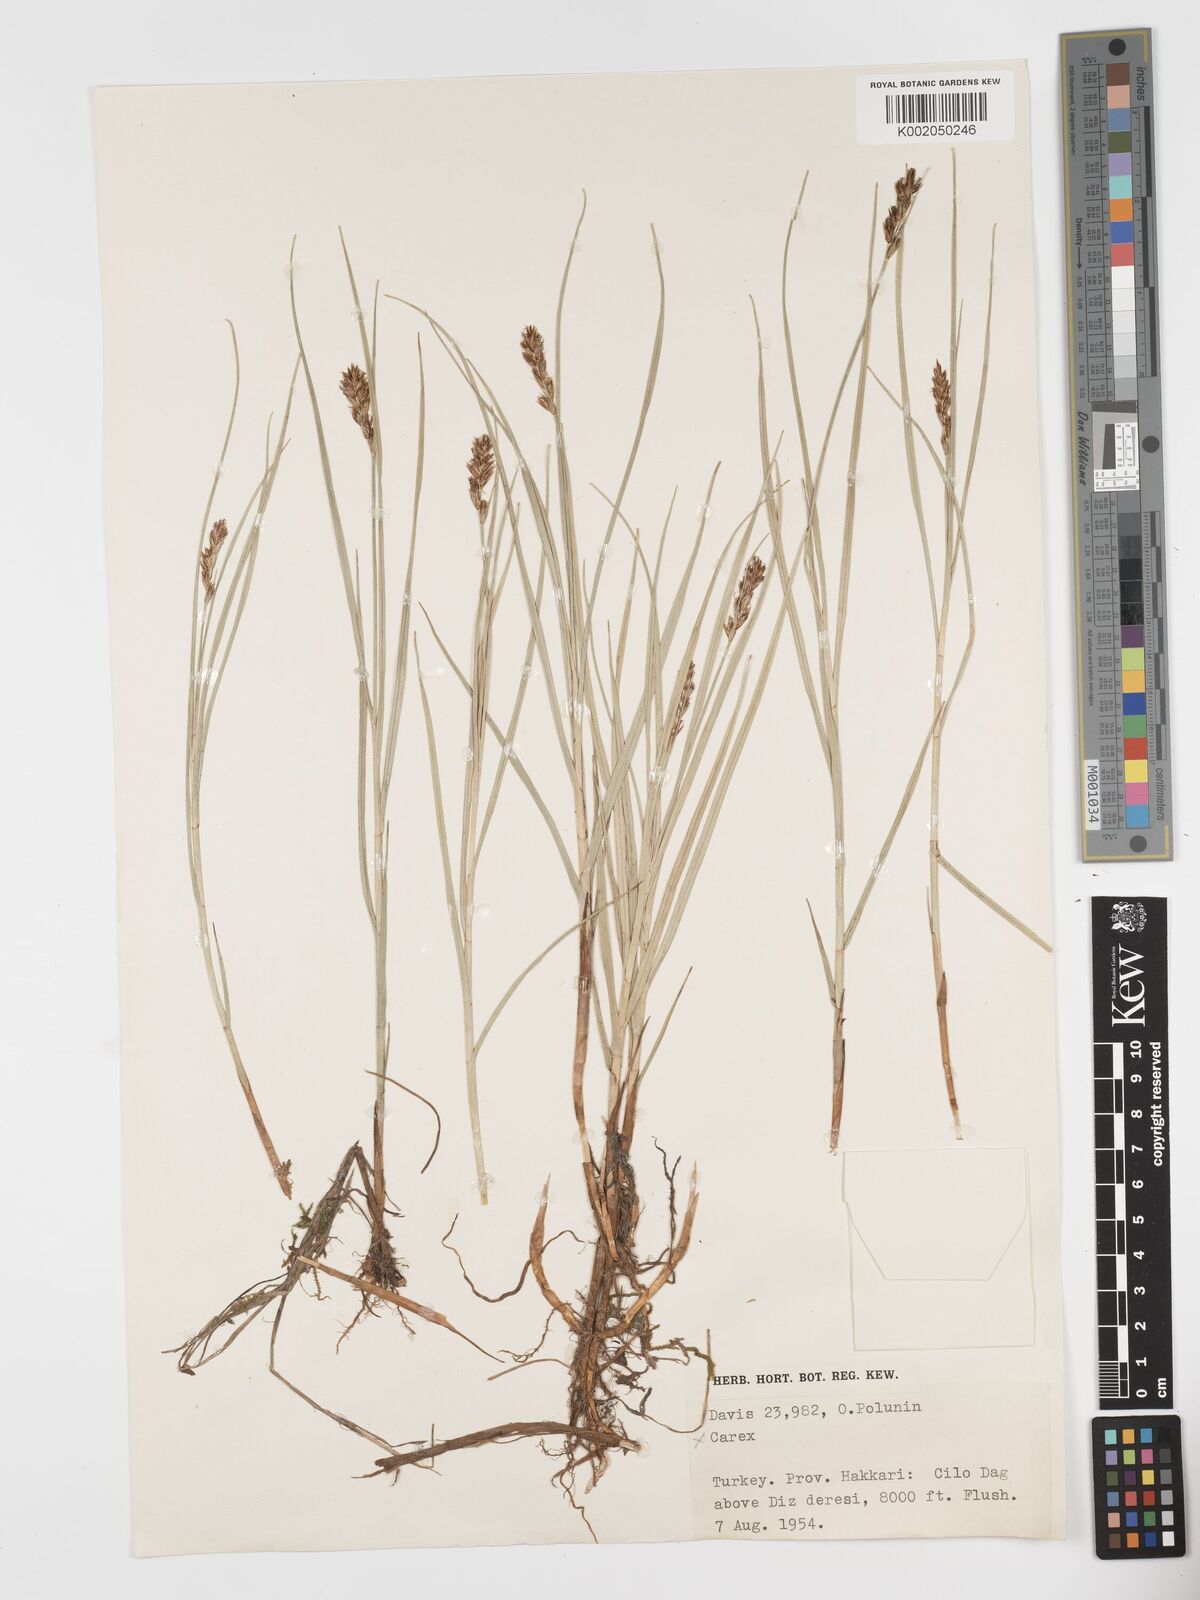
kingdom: Plantae
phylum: Tracheophyta
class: Liliopsida
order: Poales
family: Cyperaceae
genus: Blysmus
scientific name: Blysmus compressus
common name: Flat-sedge
